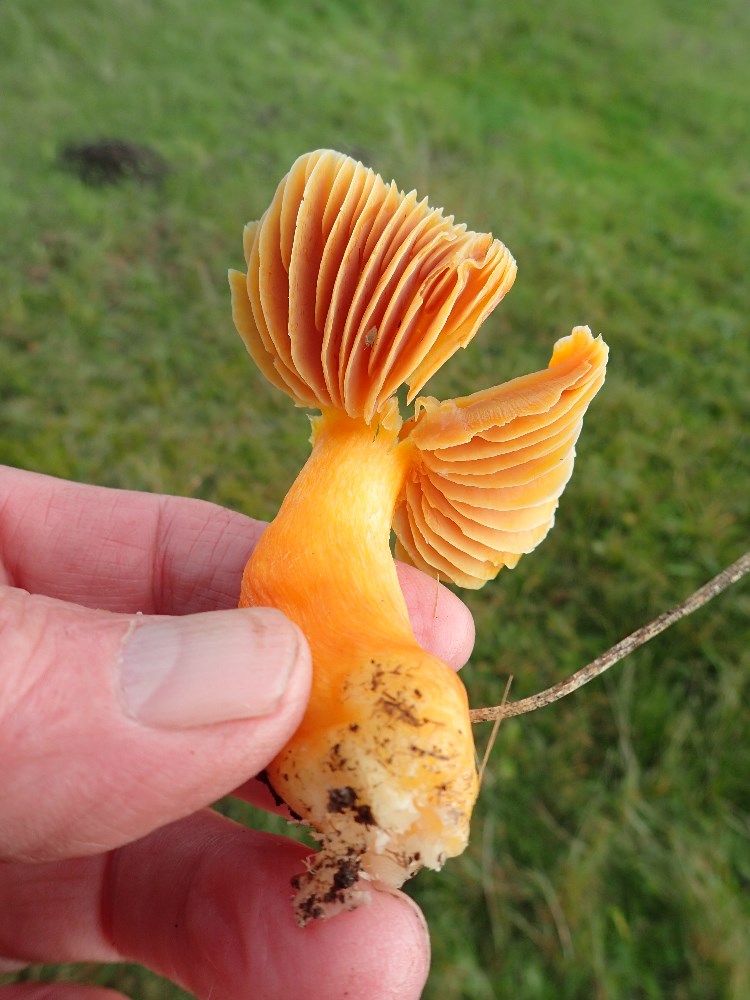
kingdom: Fungi
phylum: Basidiomycota
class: Agaricomycetes
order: Agaricales
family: Hygrophoraceae
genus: Hygrocybe
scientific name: Hygrocybe punicea
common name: skarlagen-vokshat
